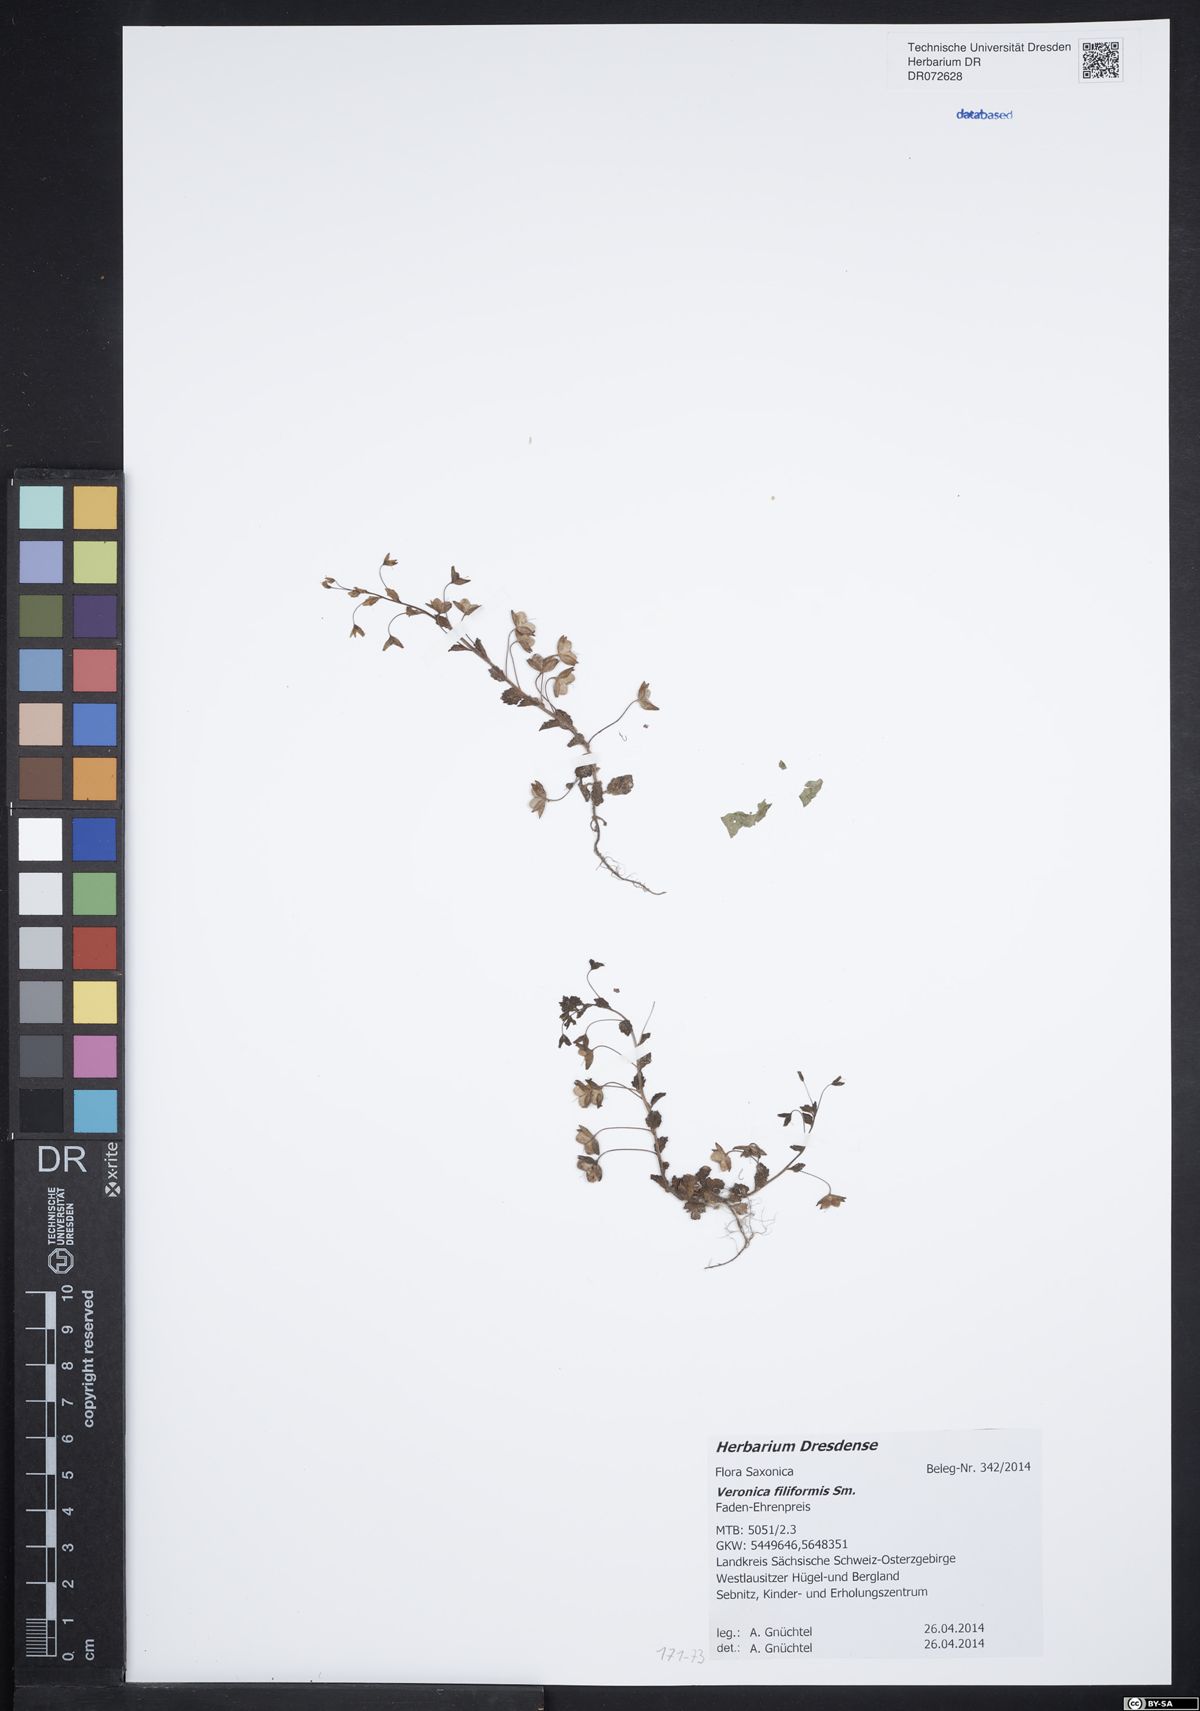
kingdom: Plantae
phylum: Tracheophyta
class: Magnoliopsida
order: Lamiales
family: Plantaginaceae
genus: Veronica
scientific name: Veronica filiformis
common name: Slender speedwell
